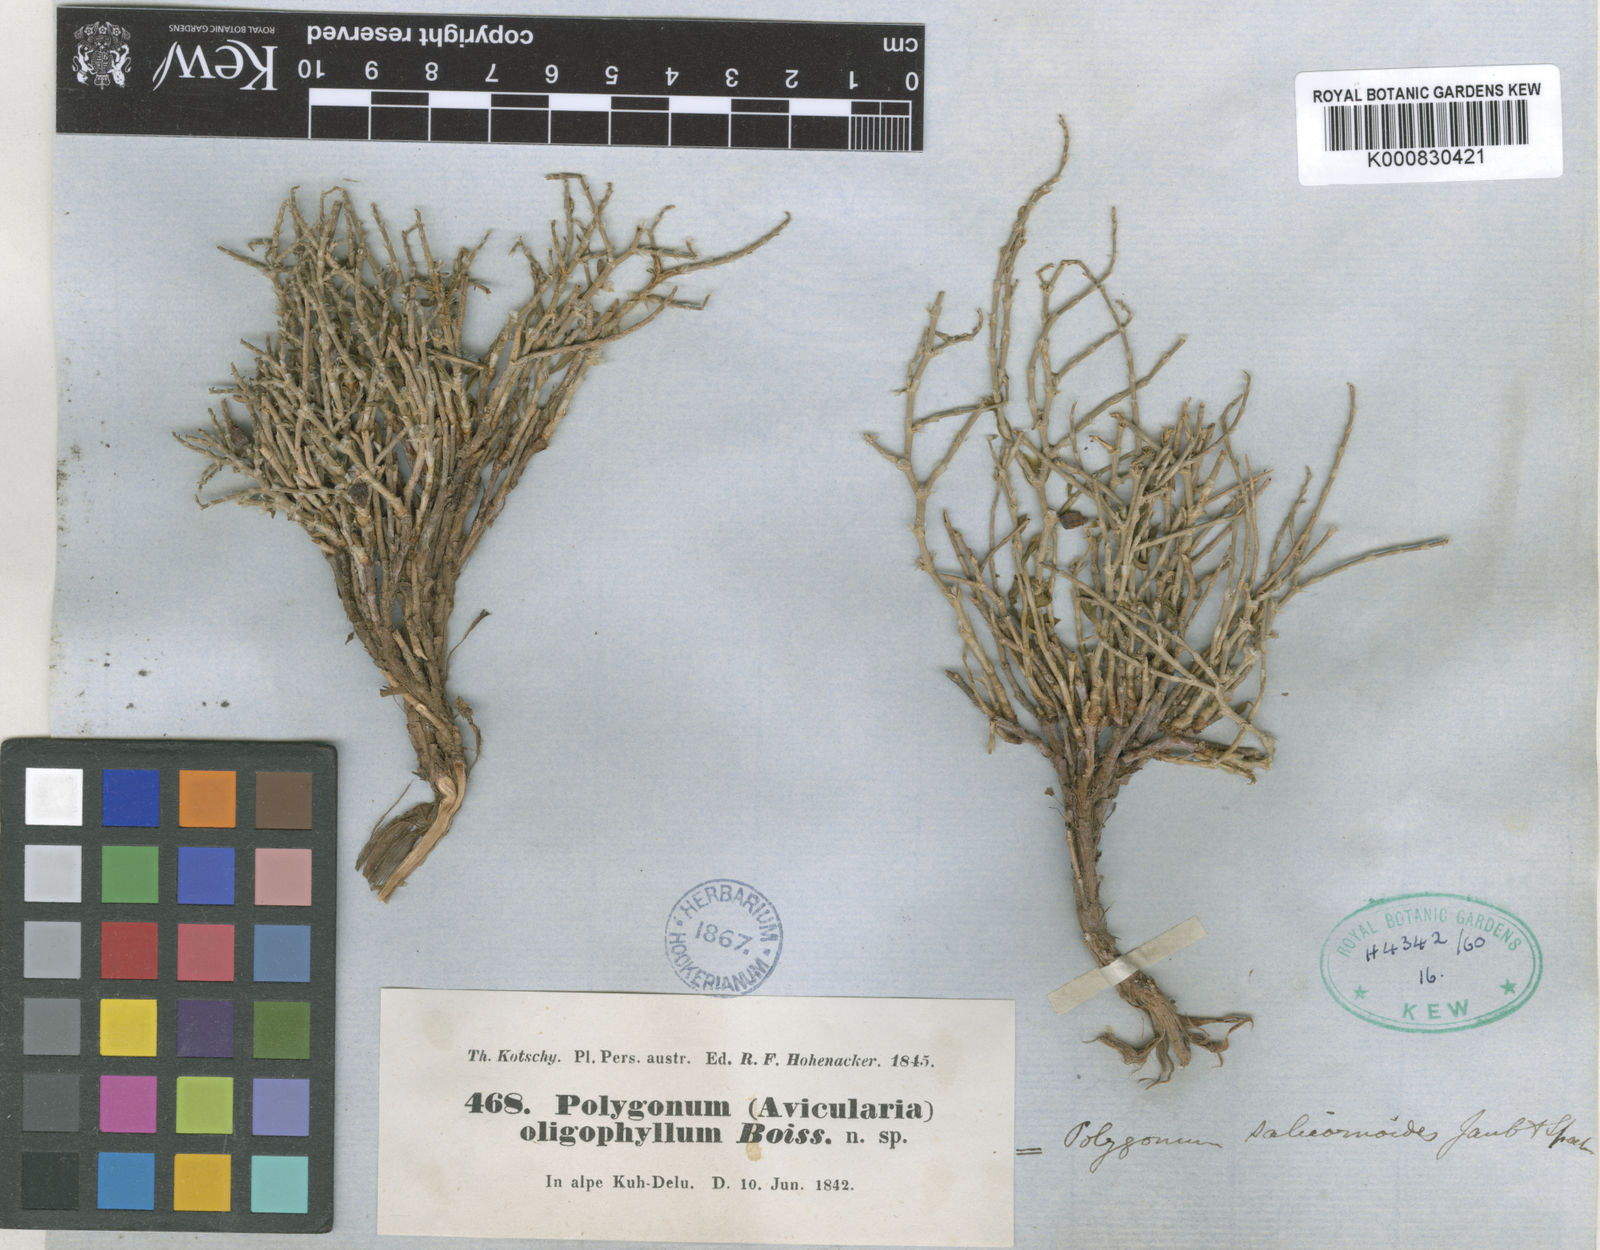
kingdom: Plantae
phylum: Tracheophyta
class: Magnoliopsida
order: Caryophyllales
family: Polygonaceae
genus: Polygonum
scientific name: Polygonum
